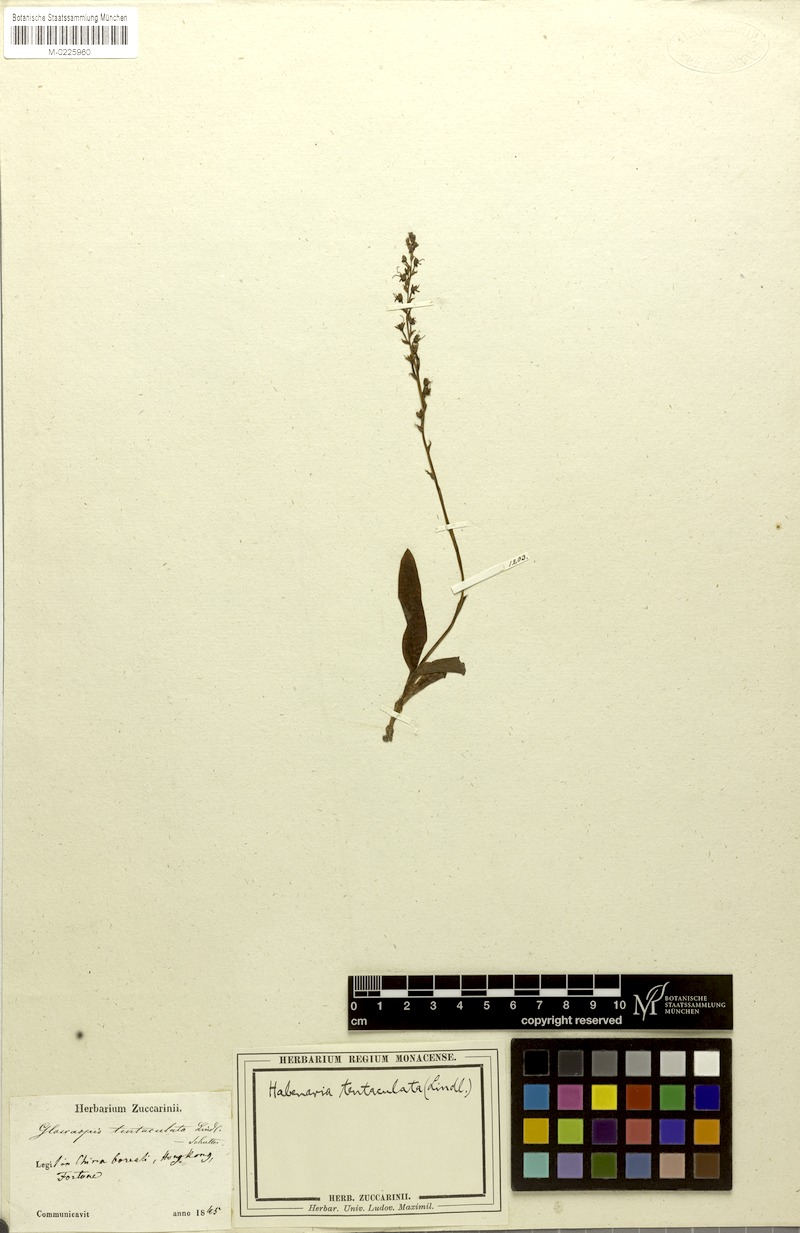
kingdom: Plantae
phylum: Tracheophyta
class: Liliopsida
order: Asparagales
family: Orchidaceae
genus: Peristylus
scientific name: Peristylus tentaculatus
